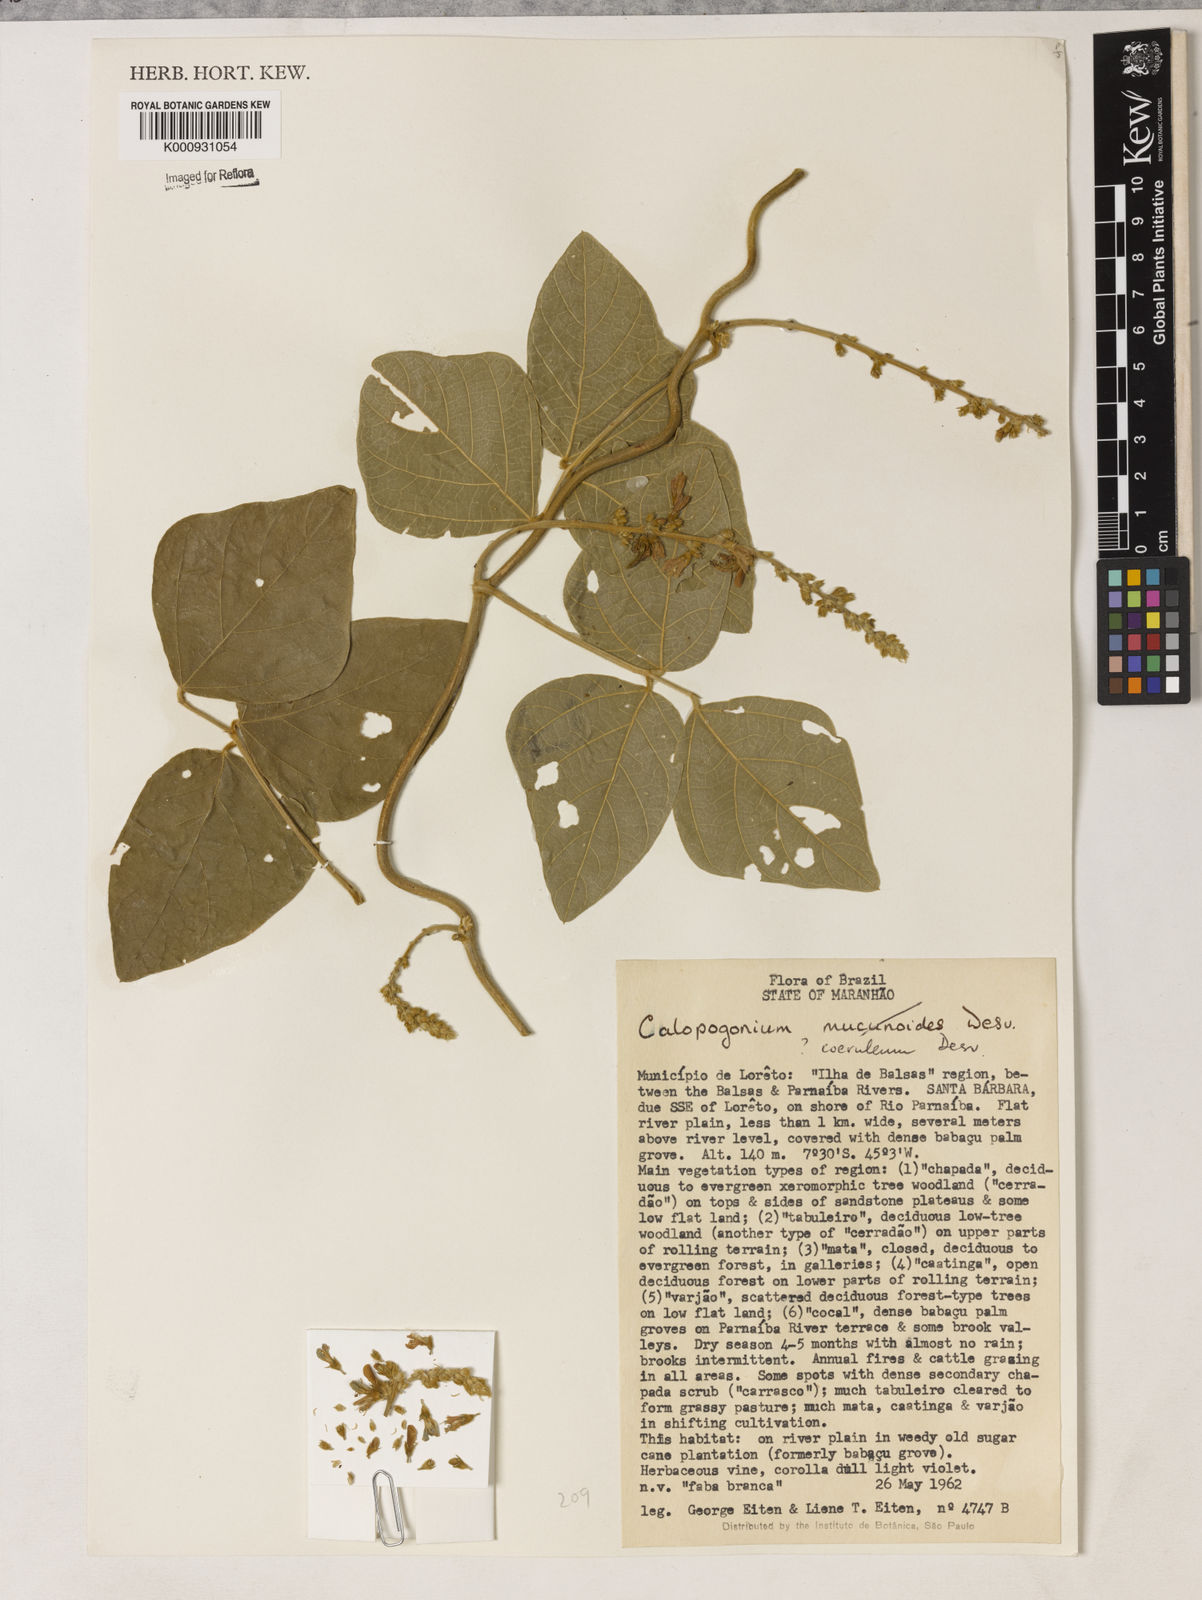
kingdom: Plantae
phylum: Tracheophyta
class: Magnoliopsida
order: Fabales
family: Fabaceae
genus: Calopogonium
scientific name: Calopogonium caeruleum
